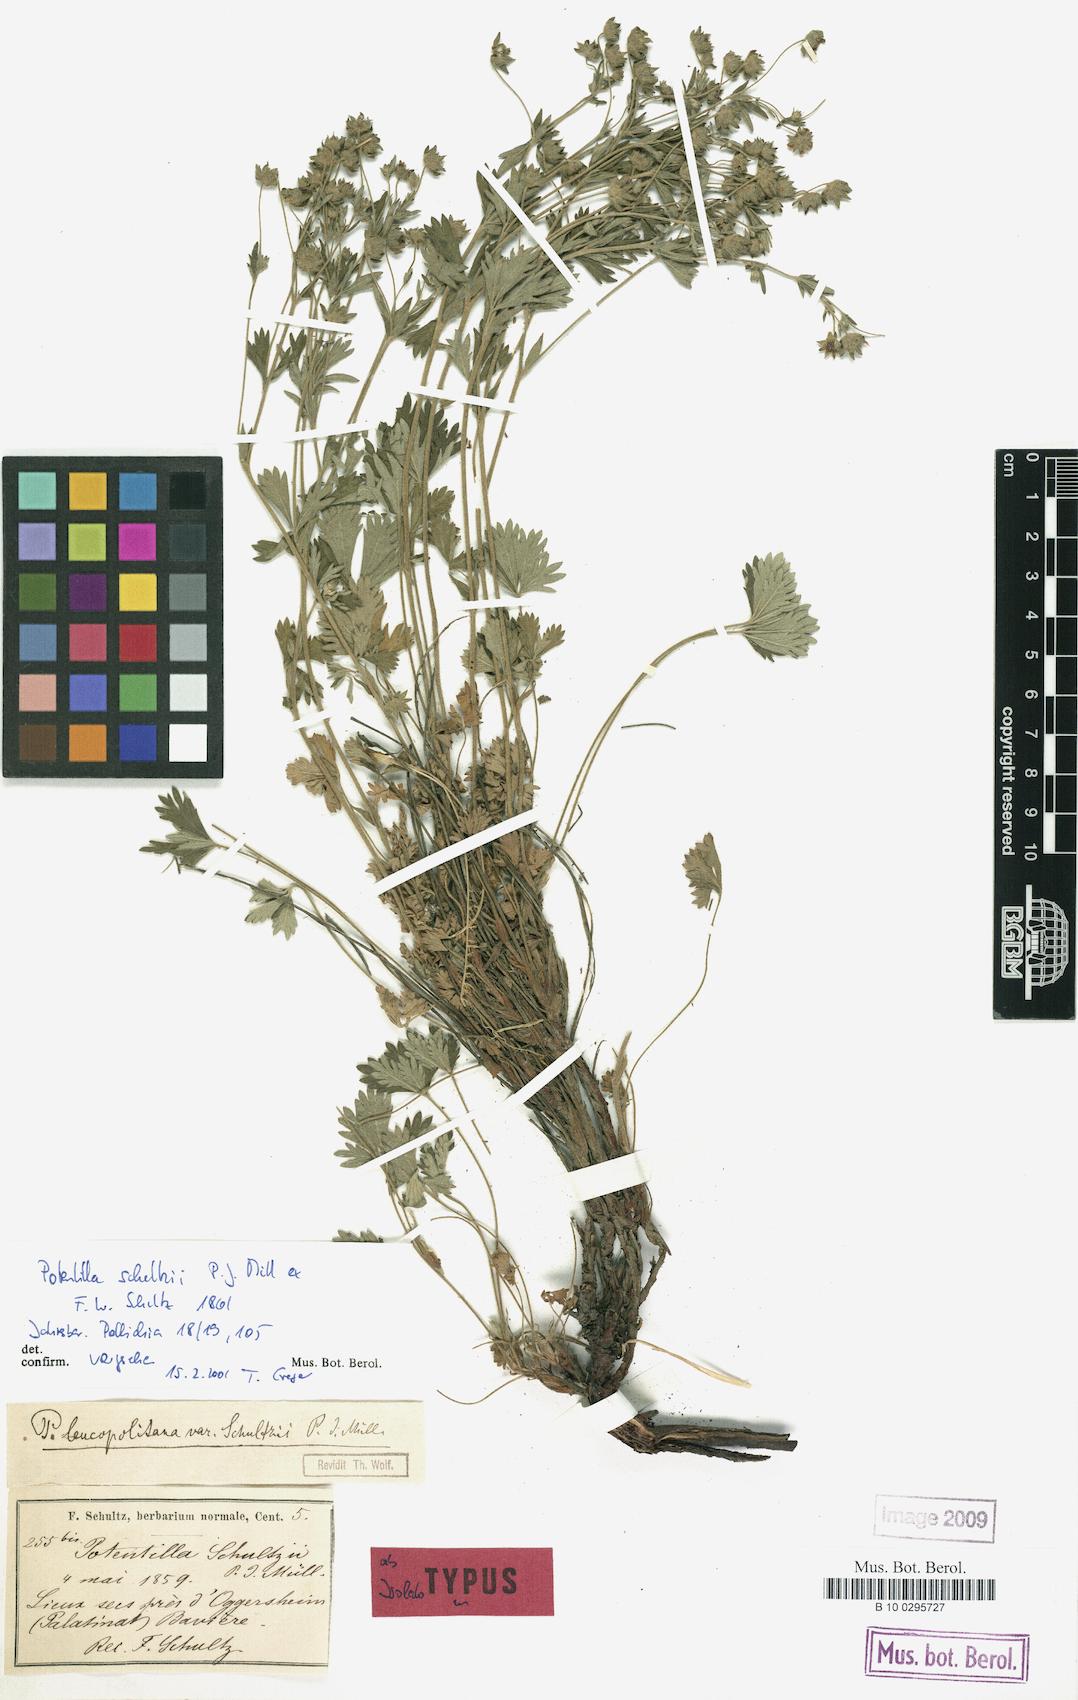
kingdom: Plantae
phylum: Tracheophyta
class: Magnoliopsida
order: Rosales
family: Rosaceae
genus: Potentilla
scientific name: Potentilla schultzii
